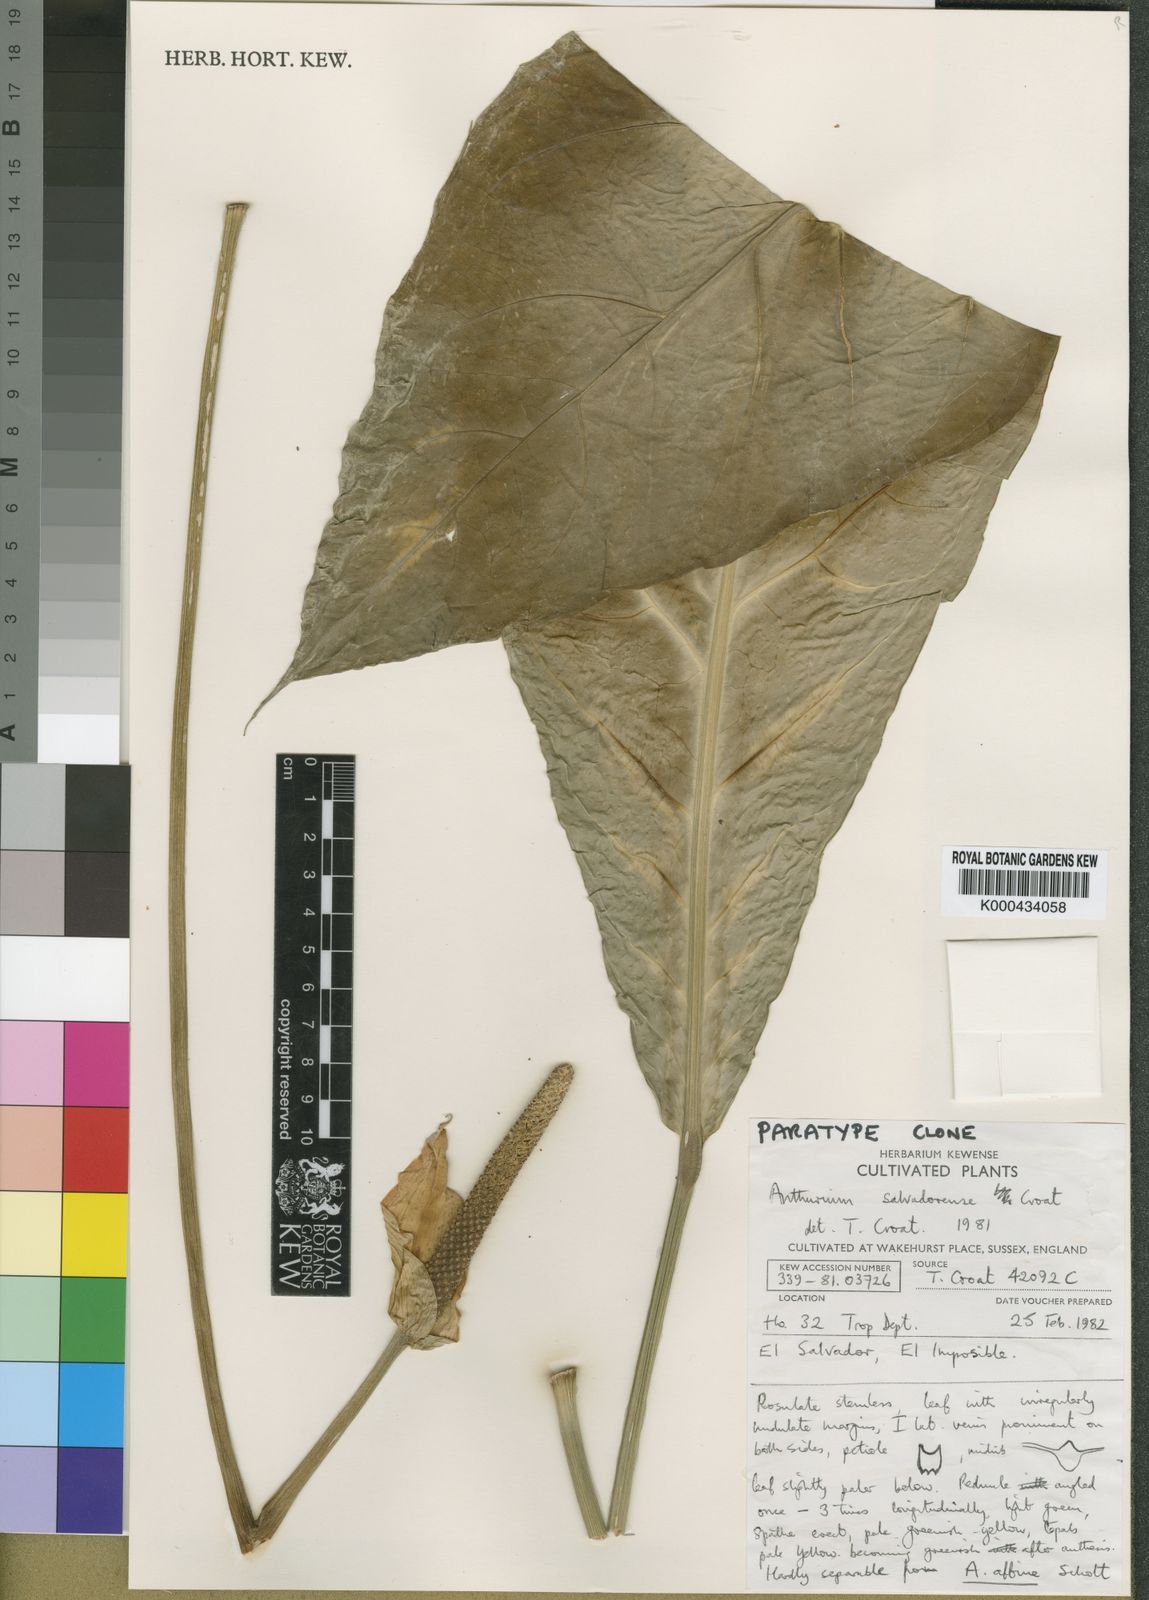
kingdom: Plantae
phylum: Tracheophyta
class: Liliopsida
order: Alismatales
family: Araceae
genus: Anthurium
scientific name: Anthurium salvadorense
